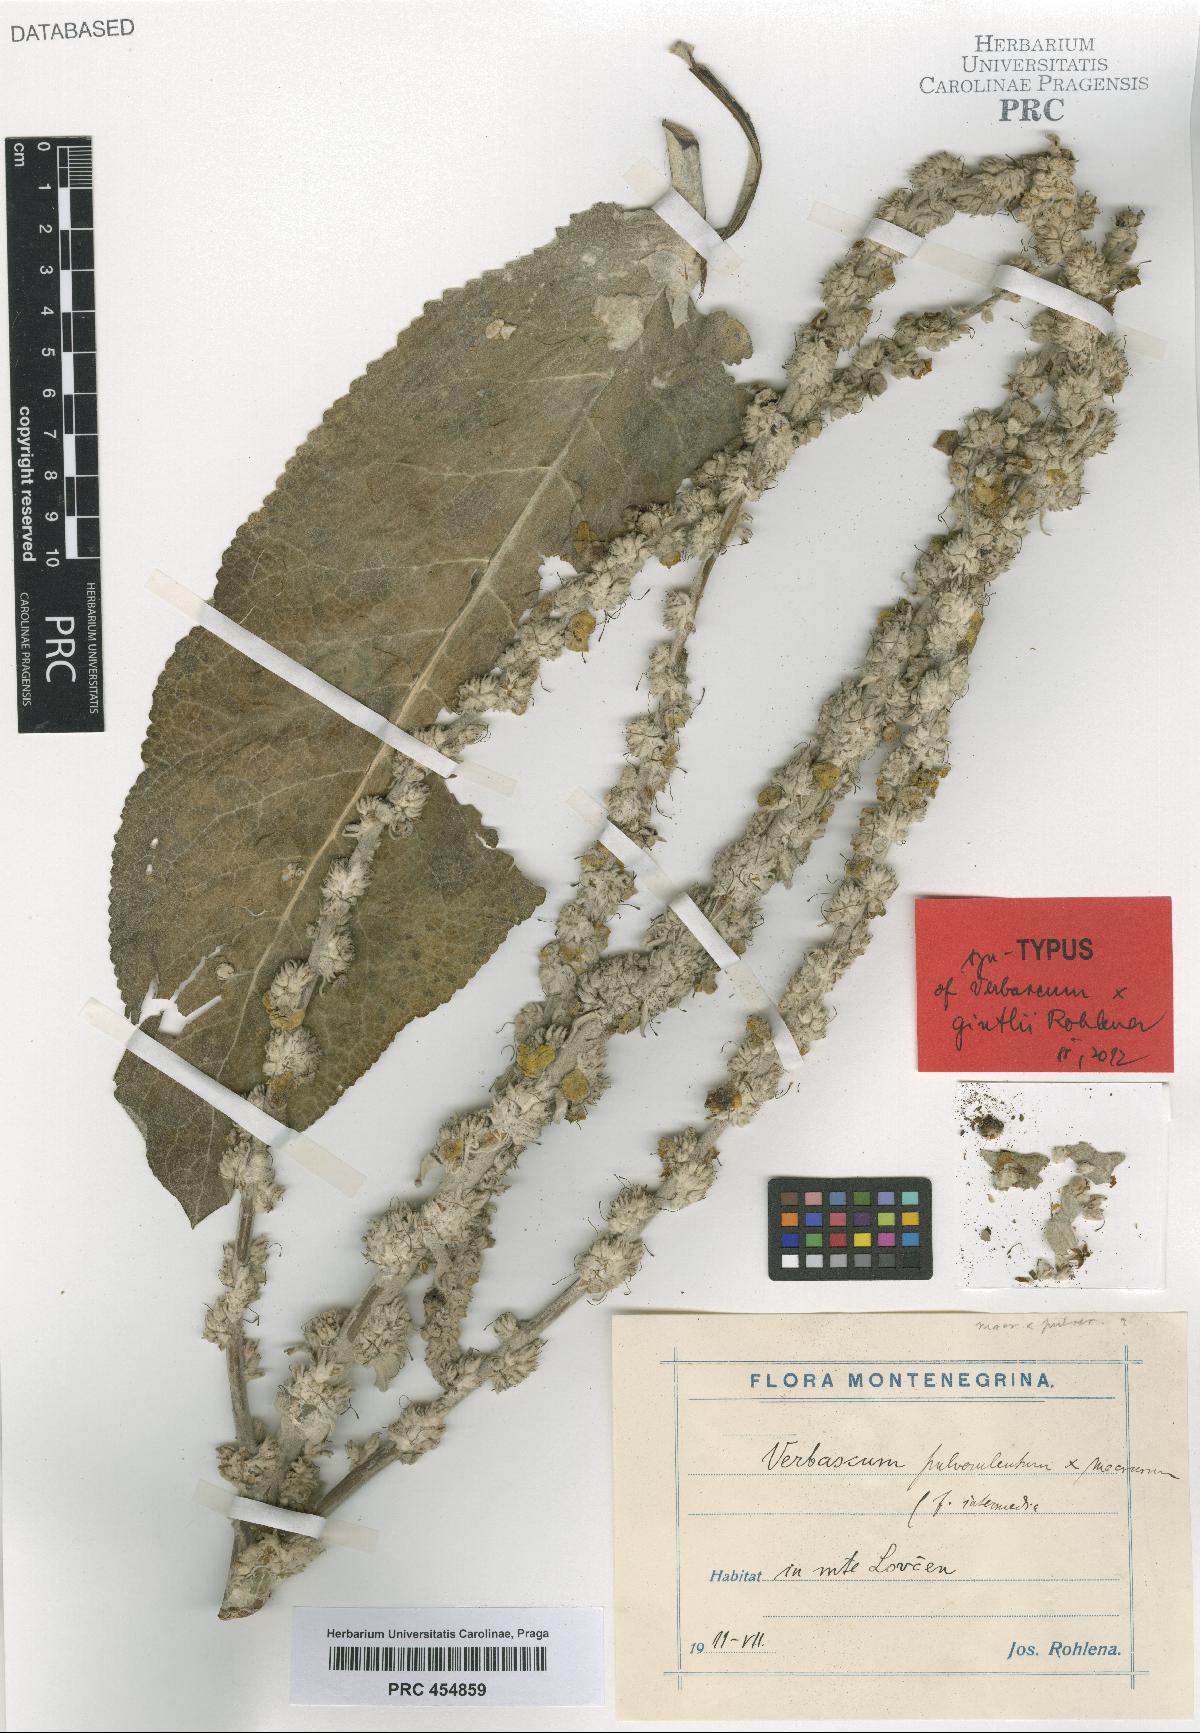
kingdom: Plantae
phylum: Tracheophyta
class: Magnoliopsida
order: Lamiales
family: Scrophulariaceae
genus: Verbascum
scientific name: Verbascum gintlii
